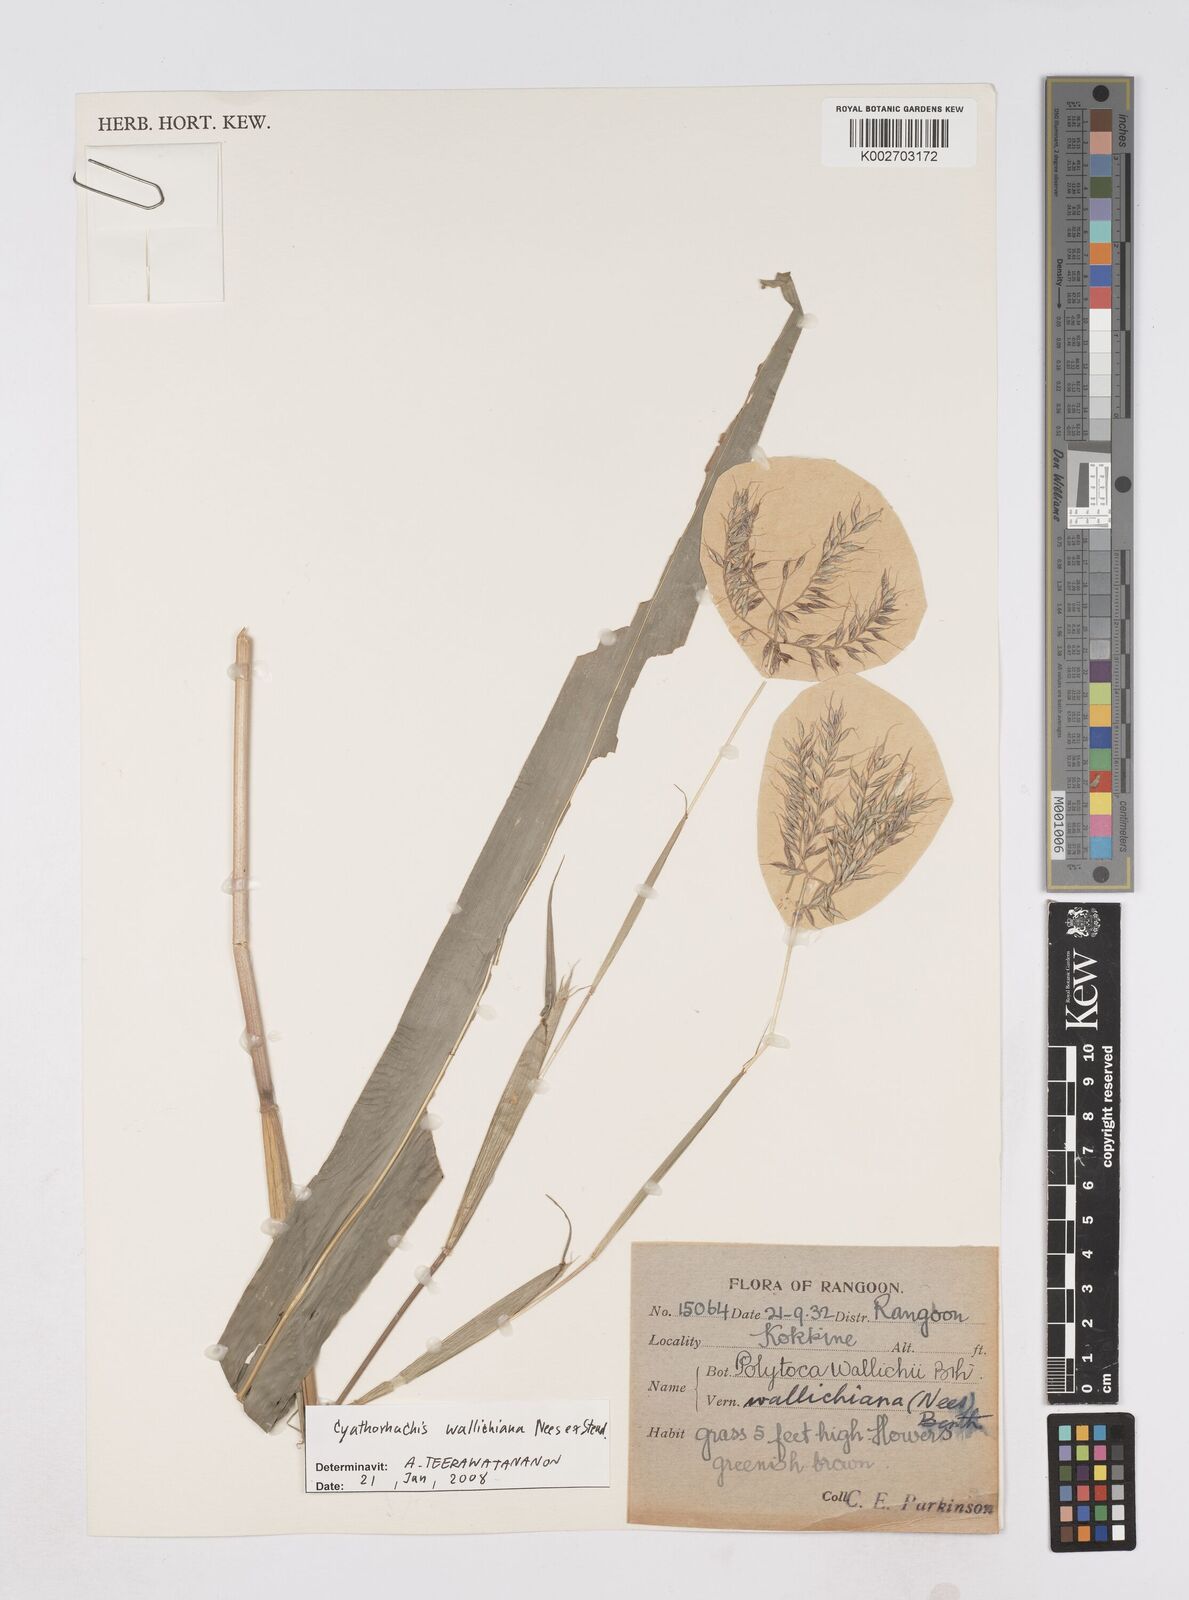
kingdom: Plantae
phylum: Tracheophyta
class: Liliopsida
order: Poales
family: Poaceae
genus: Polytoca
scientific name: Polytoca wallichiana
